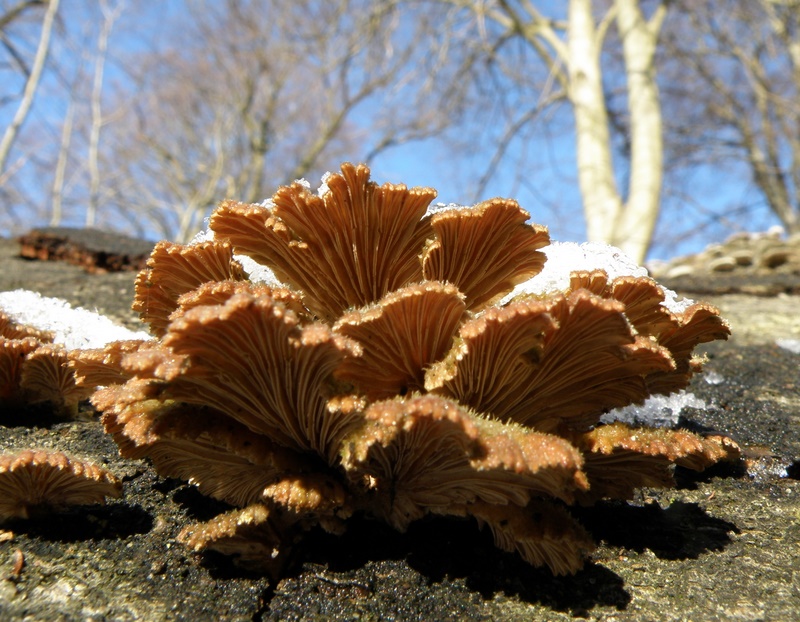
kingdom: Fungi
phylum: Basidiomycota
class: Agaricomycetes
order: Agaricales
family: Schizophyllaceae
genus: Schizophyllum
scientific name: Schizophyllum commune
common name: kløvblad
